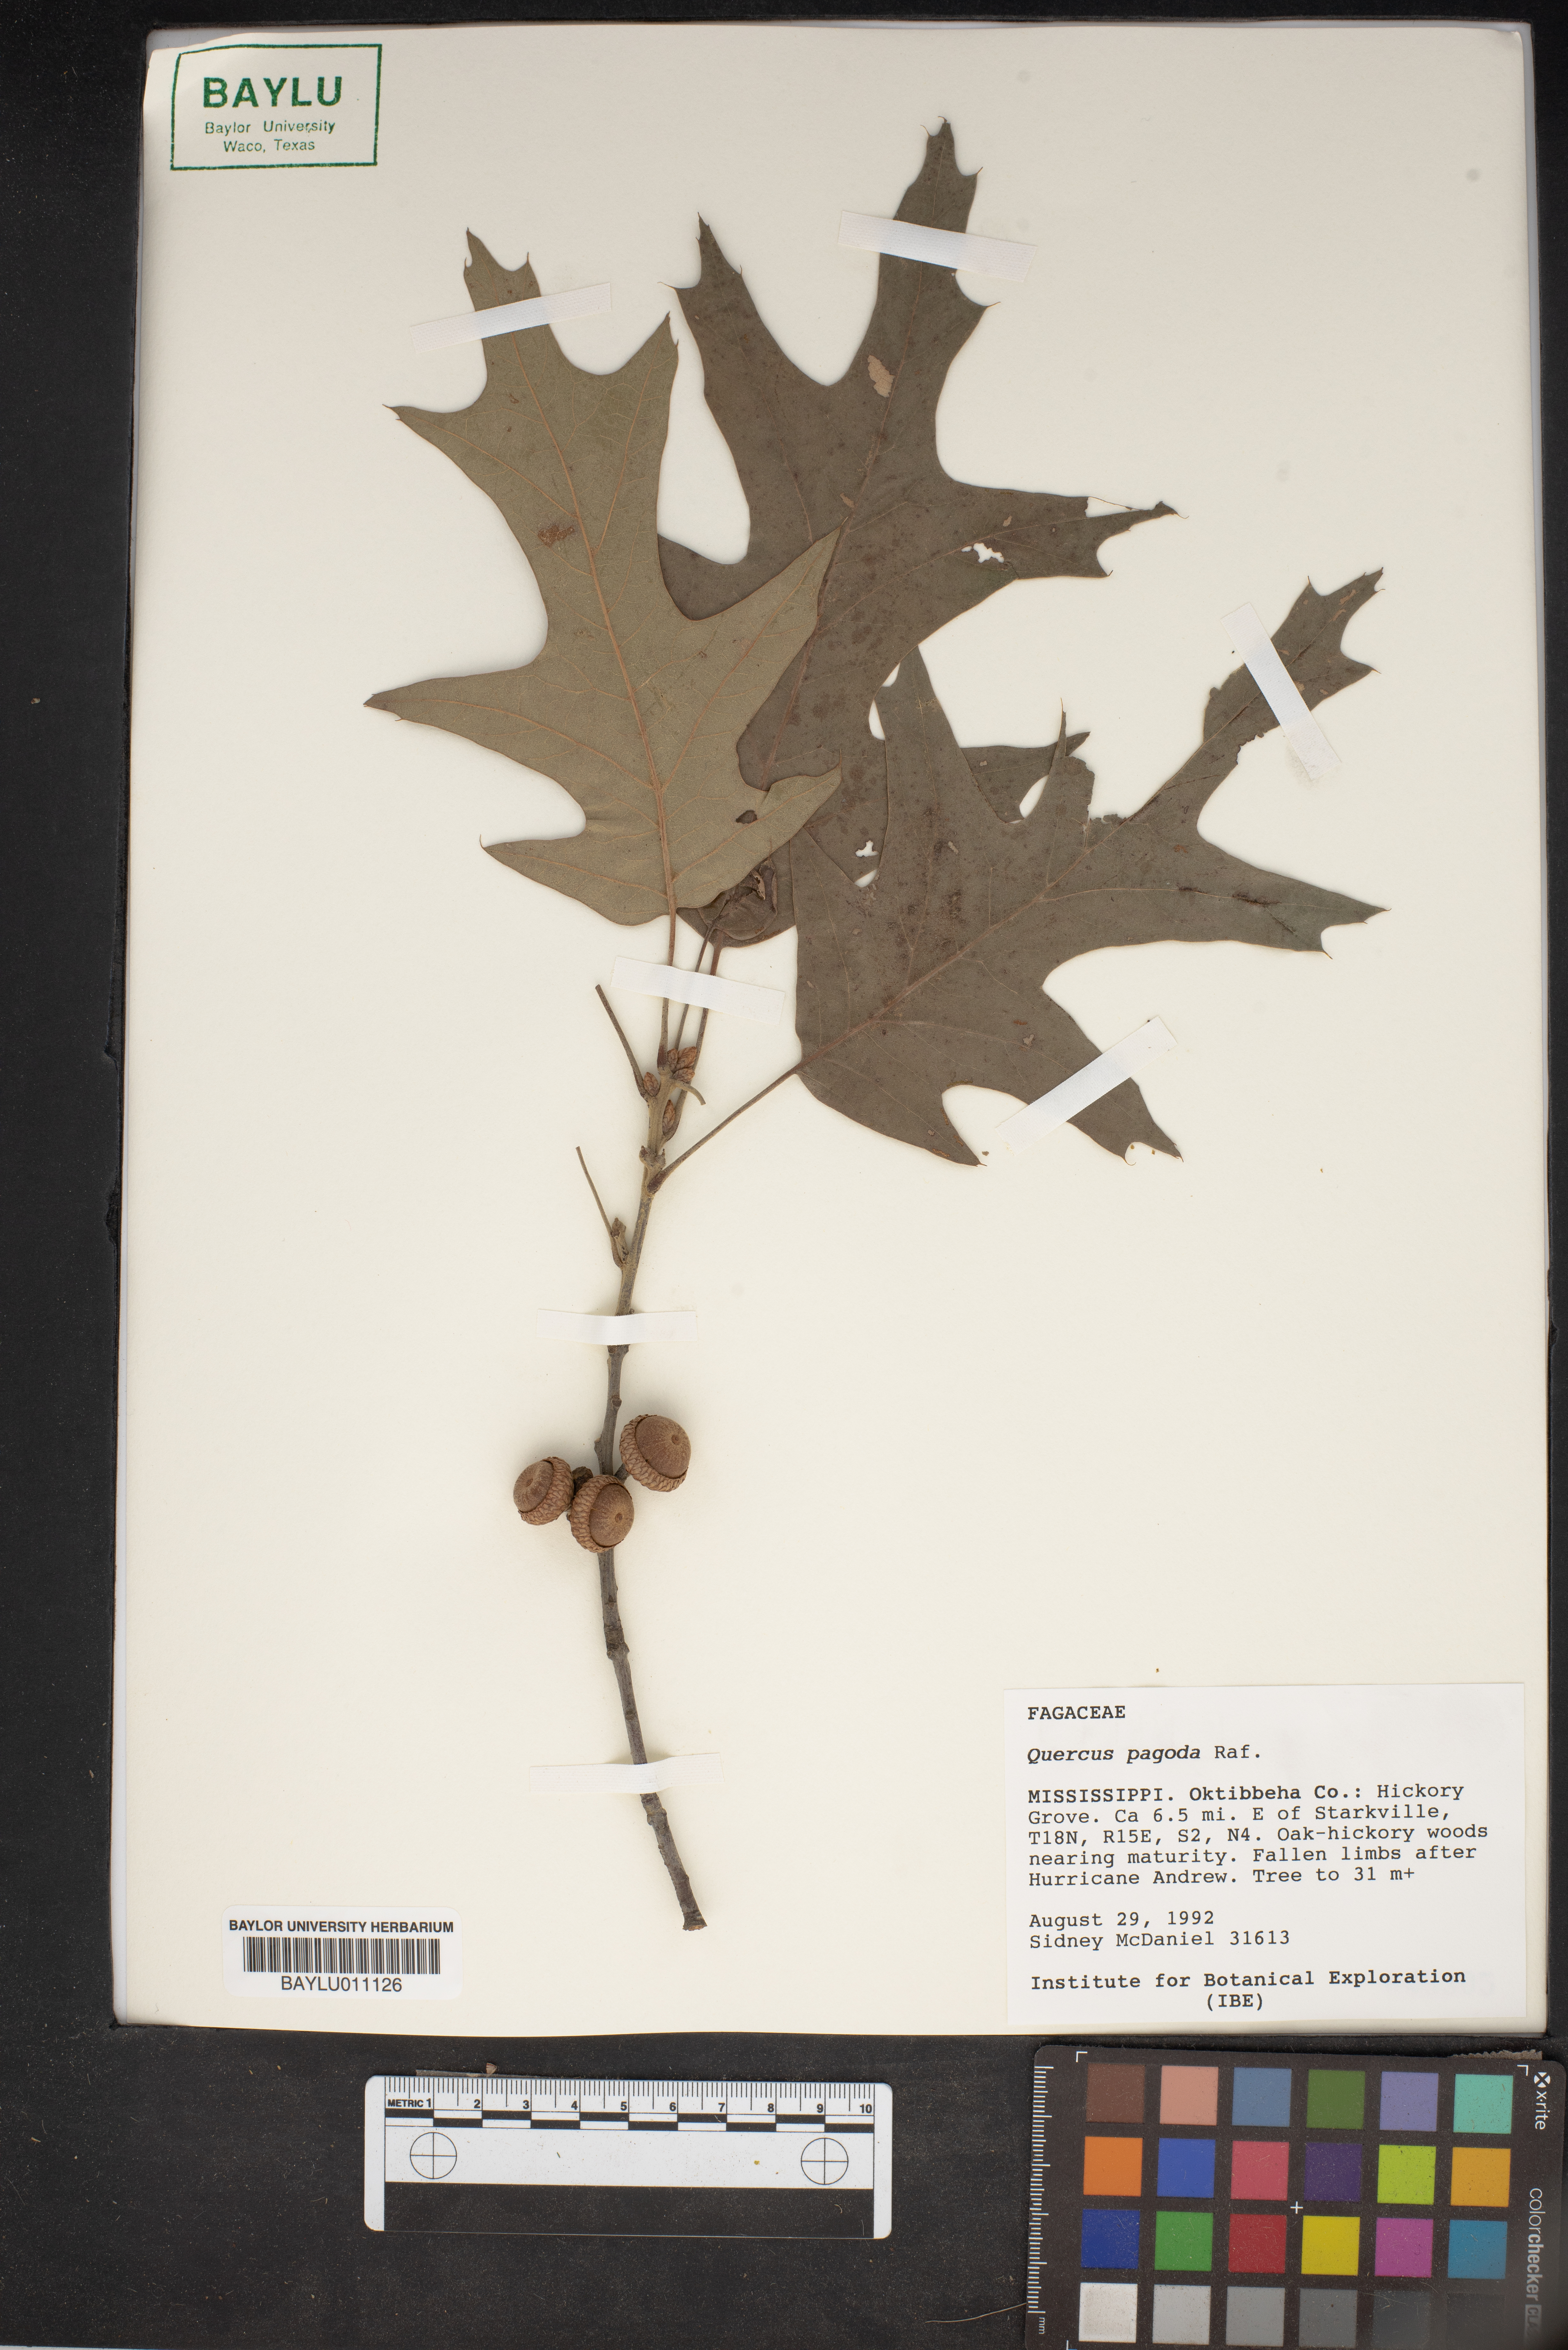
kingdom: Plantae
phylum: Tracheophyta
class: Magnoliopsida
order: Fagales
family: Fagaceae
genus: Quercus
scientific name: Quercus pagoda
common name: Cherrybark oak
